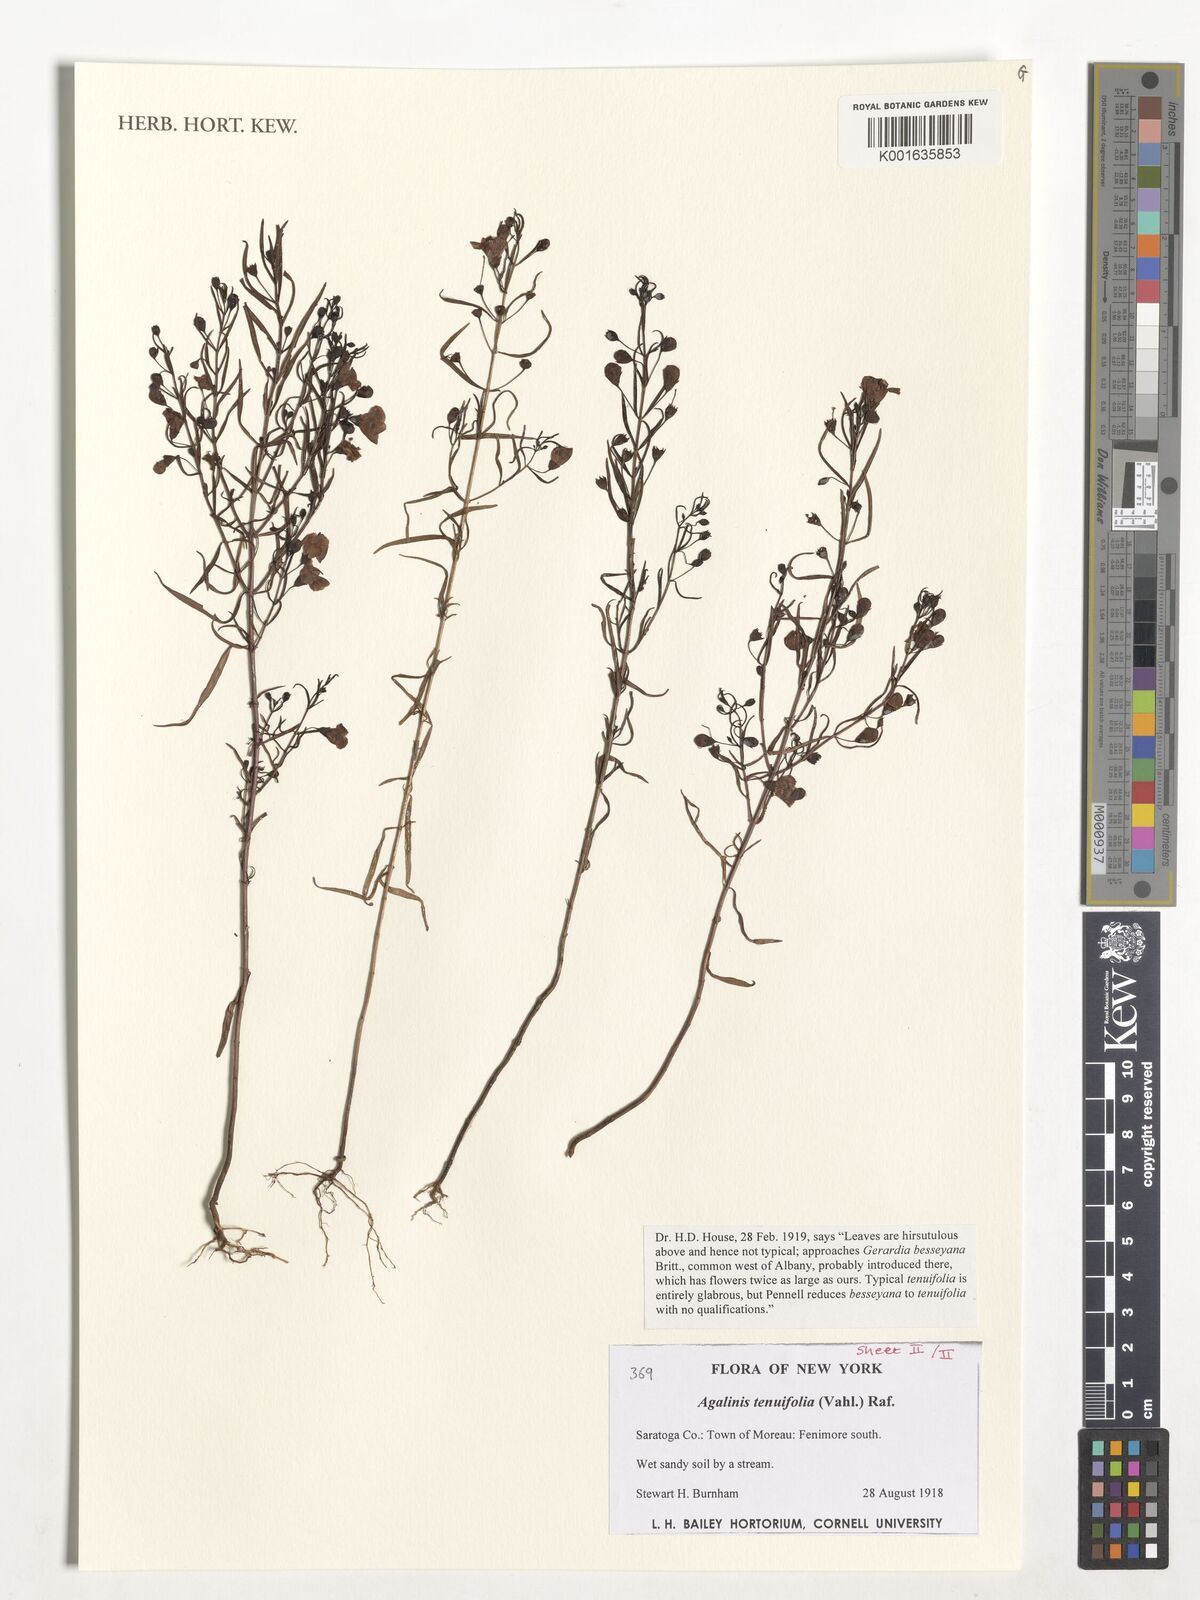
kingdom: Plantae
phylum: Tracheophyta
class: Magnoliopsida
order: Lamiales
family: Orobanchaceae
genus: Agalinis
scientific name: Agalinis tenuifolia
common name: Slender agalinis
